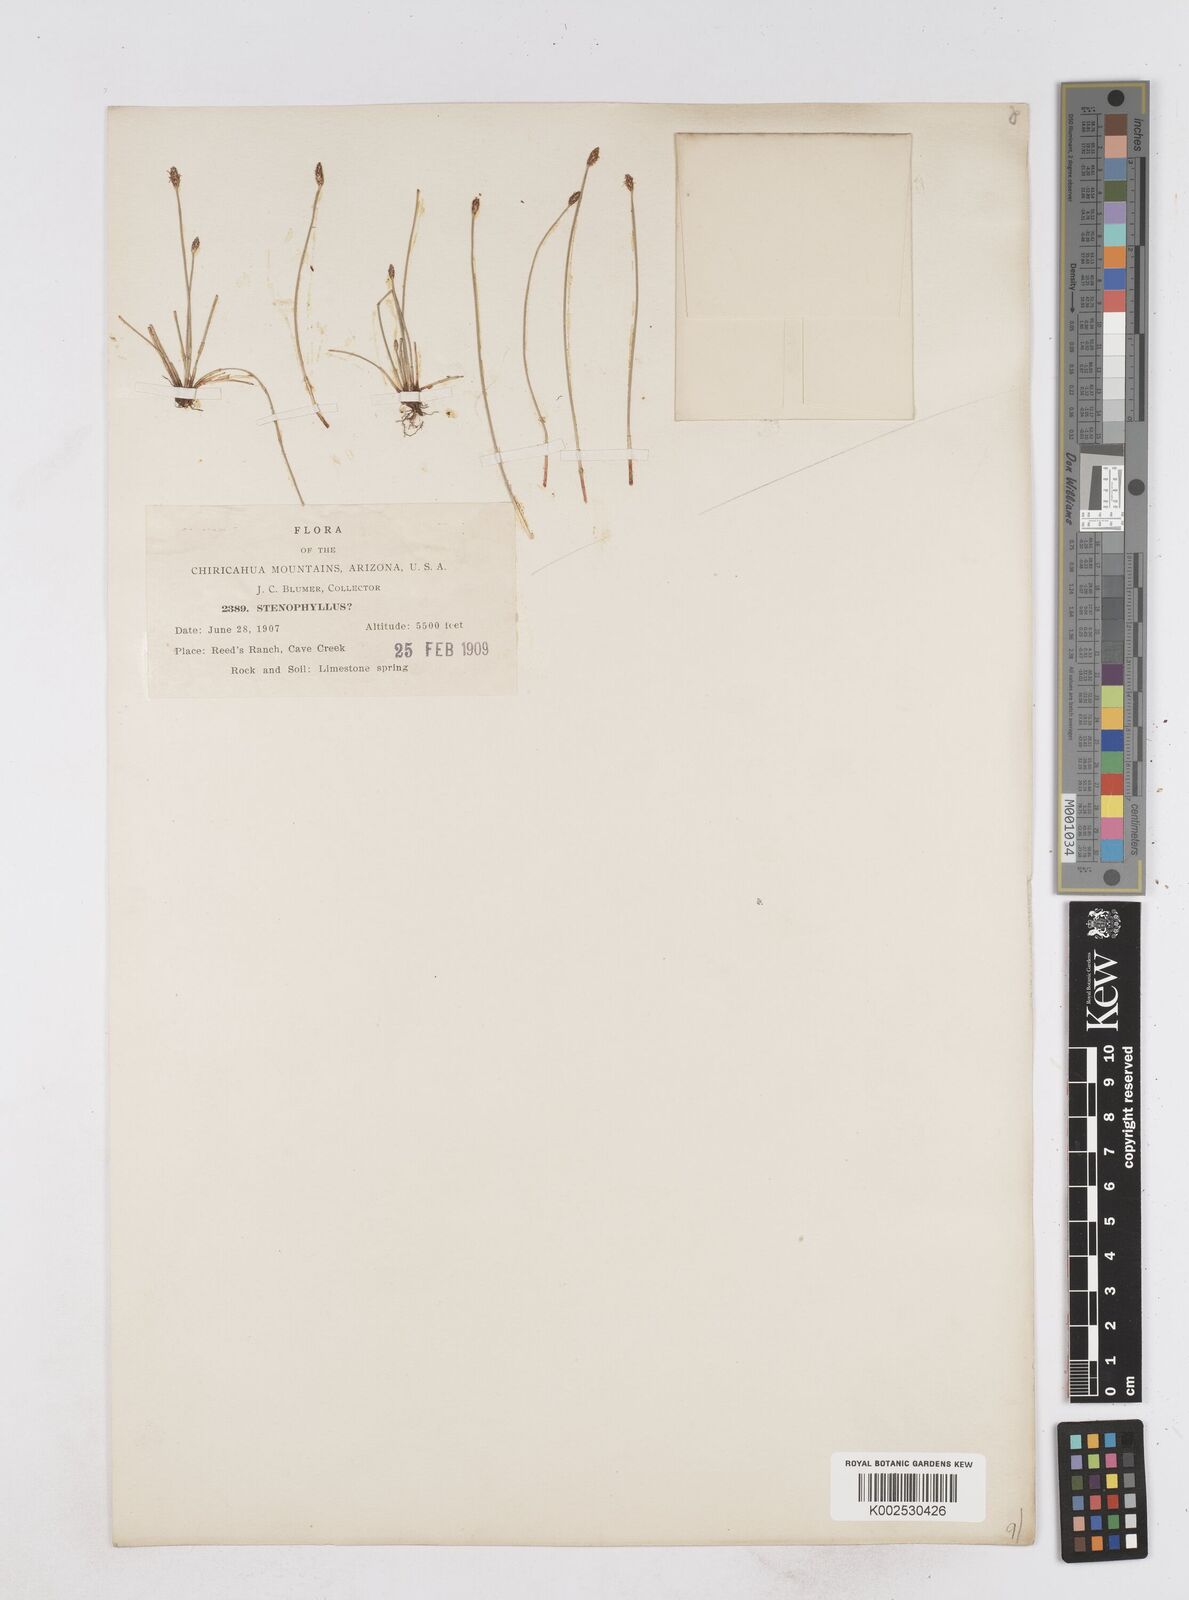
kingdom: Plantae
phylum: Tracheophyta
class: Liliopsida
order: Poales
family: Cyperaceae
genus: Eleocharis
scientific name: Eleocharis
